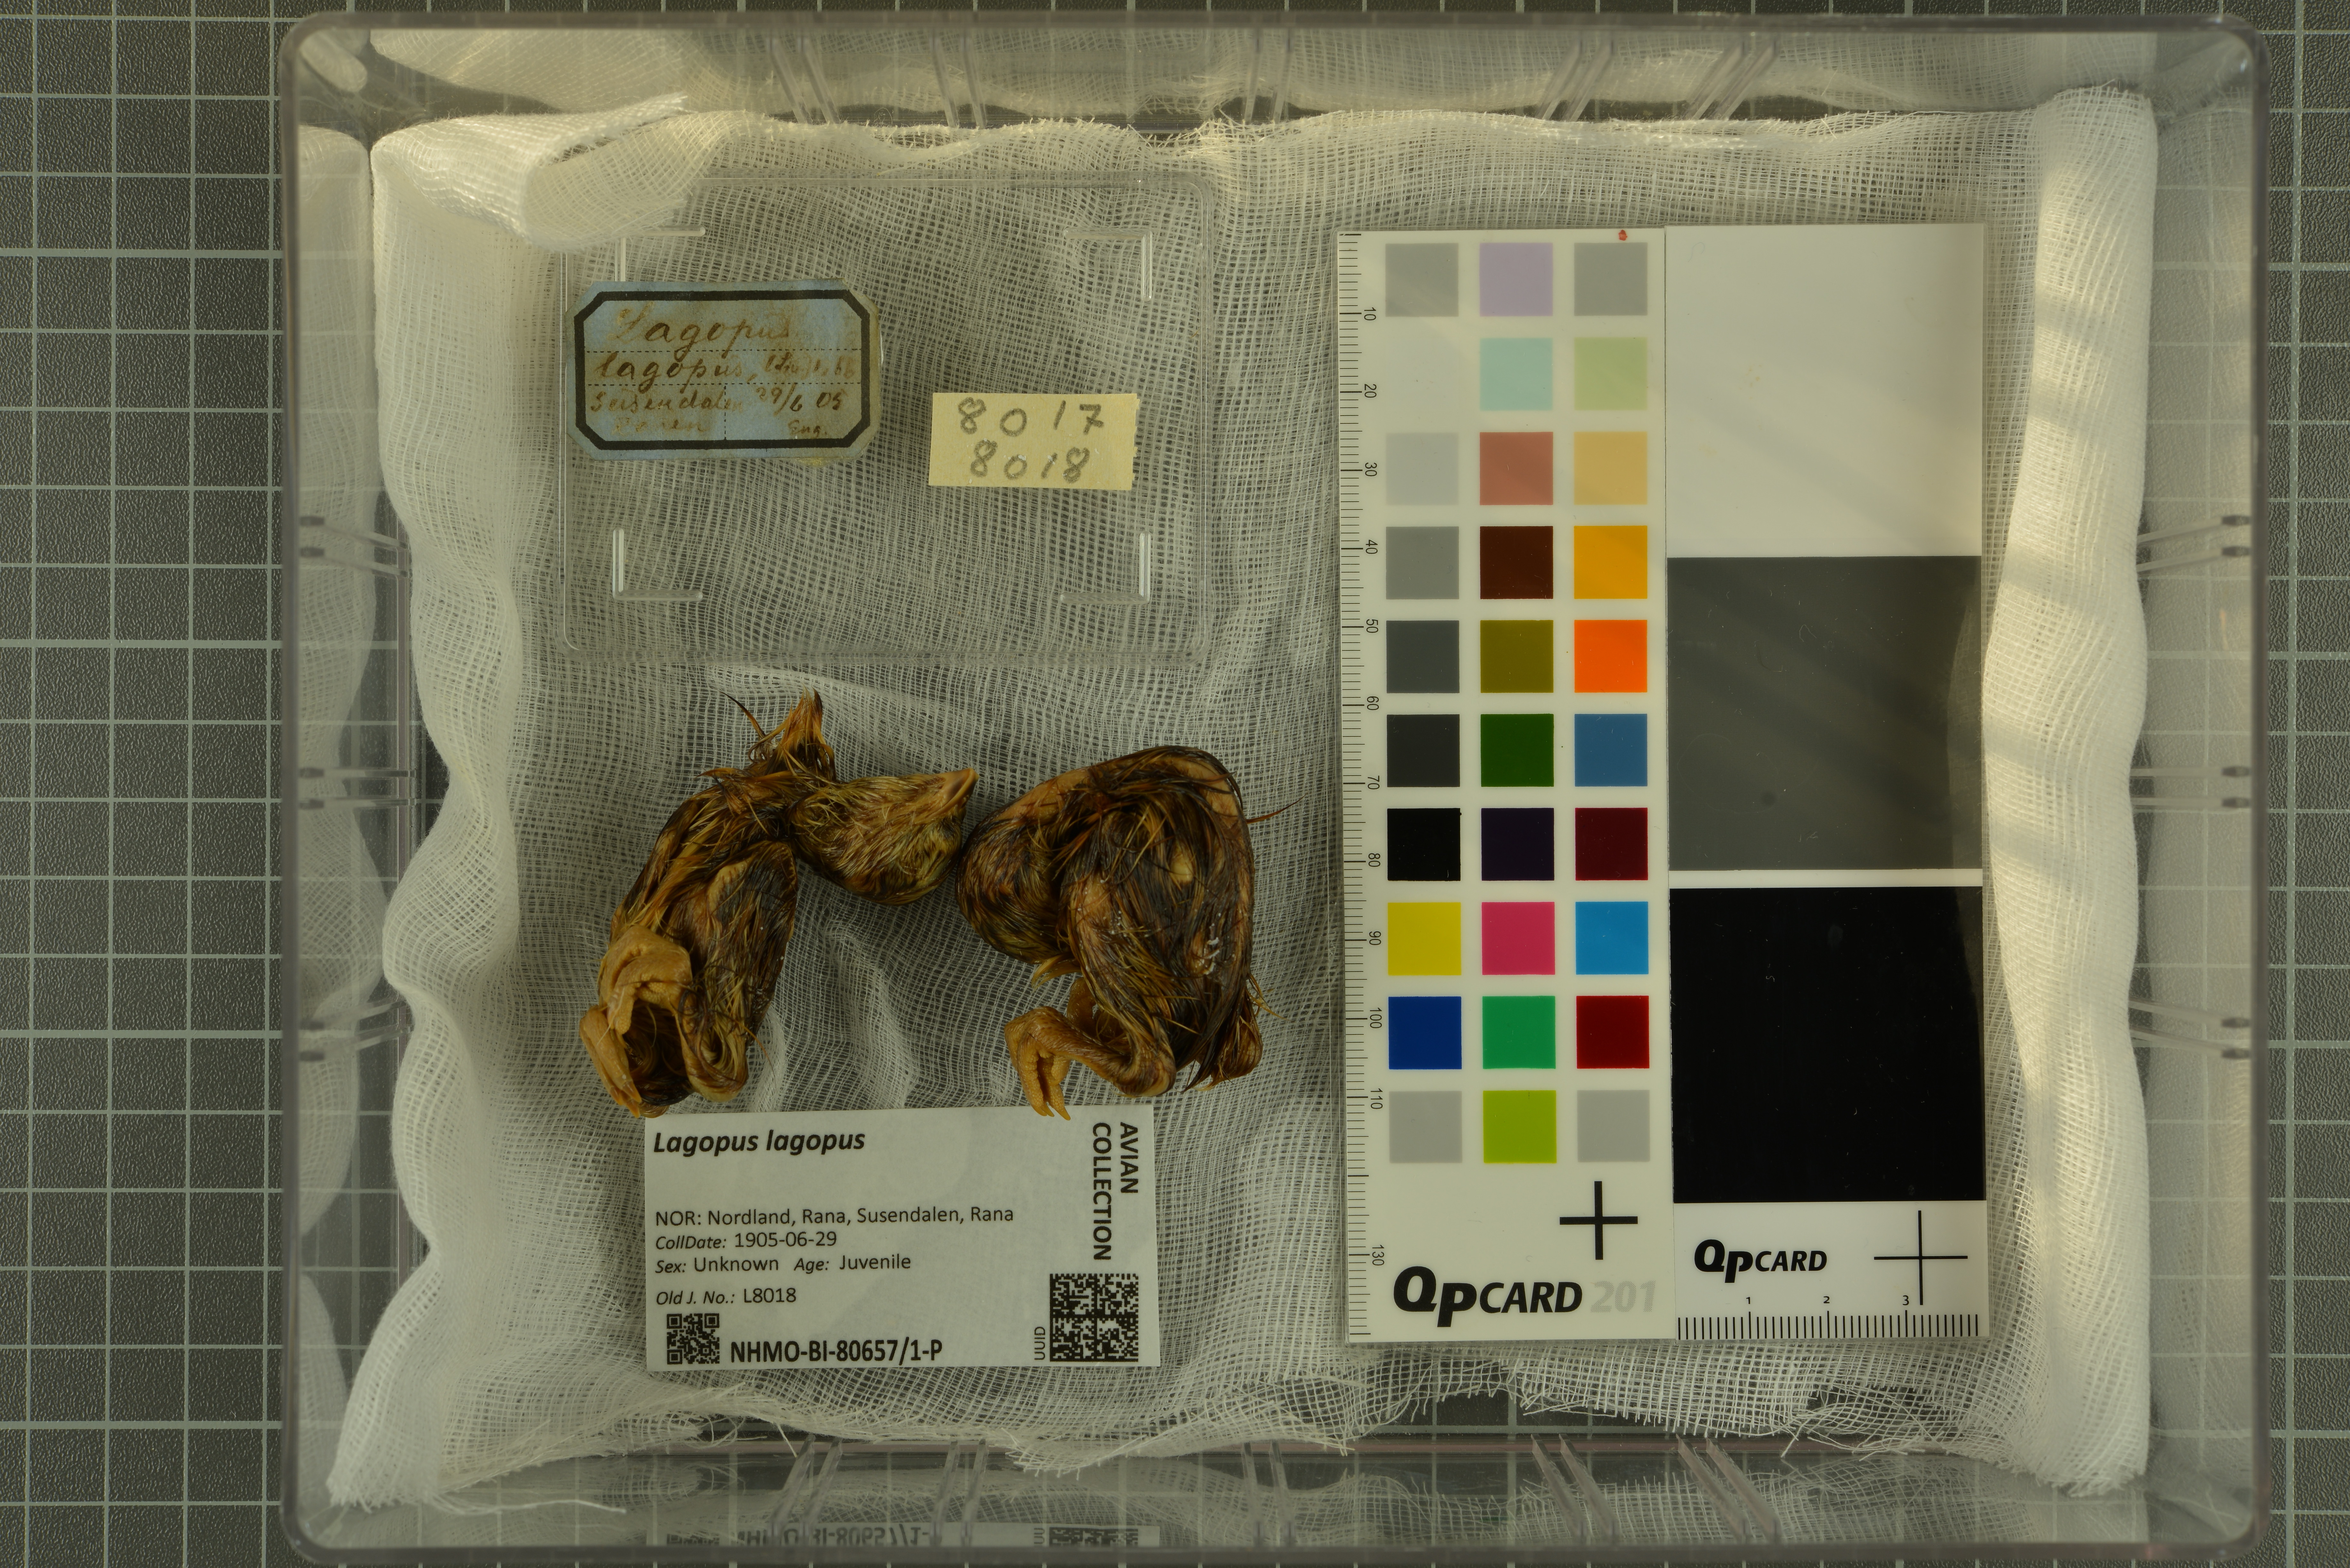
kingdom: Animalia
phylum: Chordata
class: Aves
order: Galliformes
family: Phasianidae
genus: Lagopus
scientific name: Lagopus lagopus
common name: Willow ptarmigan
